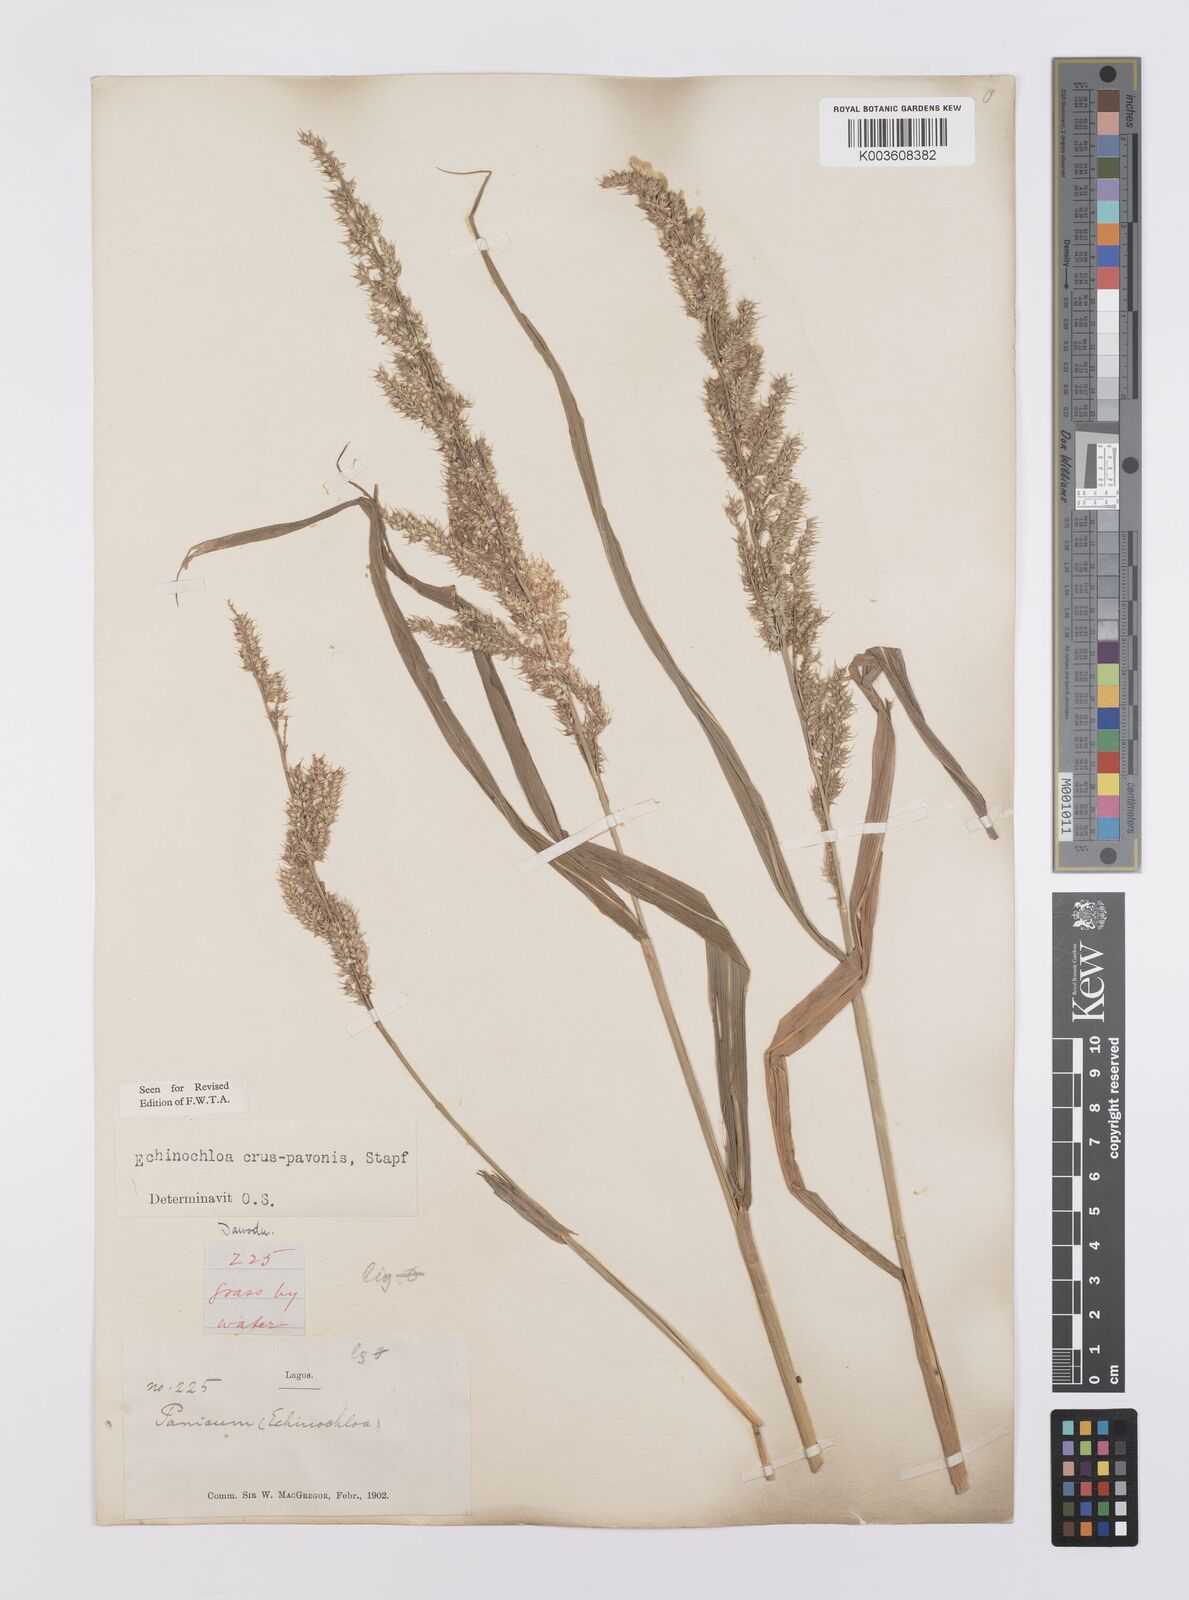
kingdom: Plantae
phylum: Tracheophyta
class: Liliopsida
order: Poales
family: Poaceae
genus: Echinochloa
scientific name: Echinochloa crus-pavonis
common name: Gulf cockspur grass
